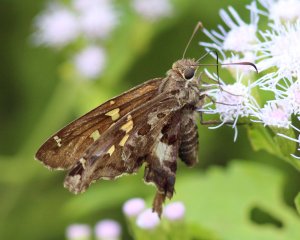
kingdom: Animalia
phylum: Arthropoda
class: Insecta
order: Lepidoptera
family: Hesperiidae
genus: Chioides
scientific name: Chioides zilpa
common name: Zilpa Longtail
